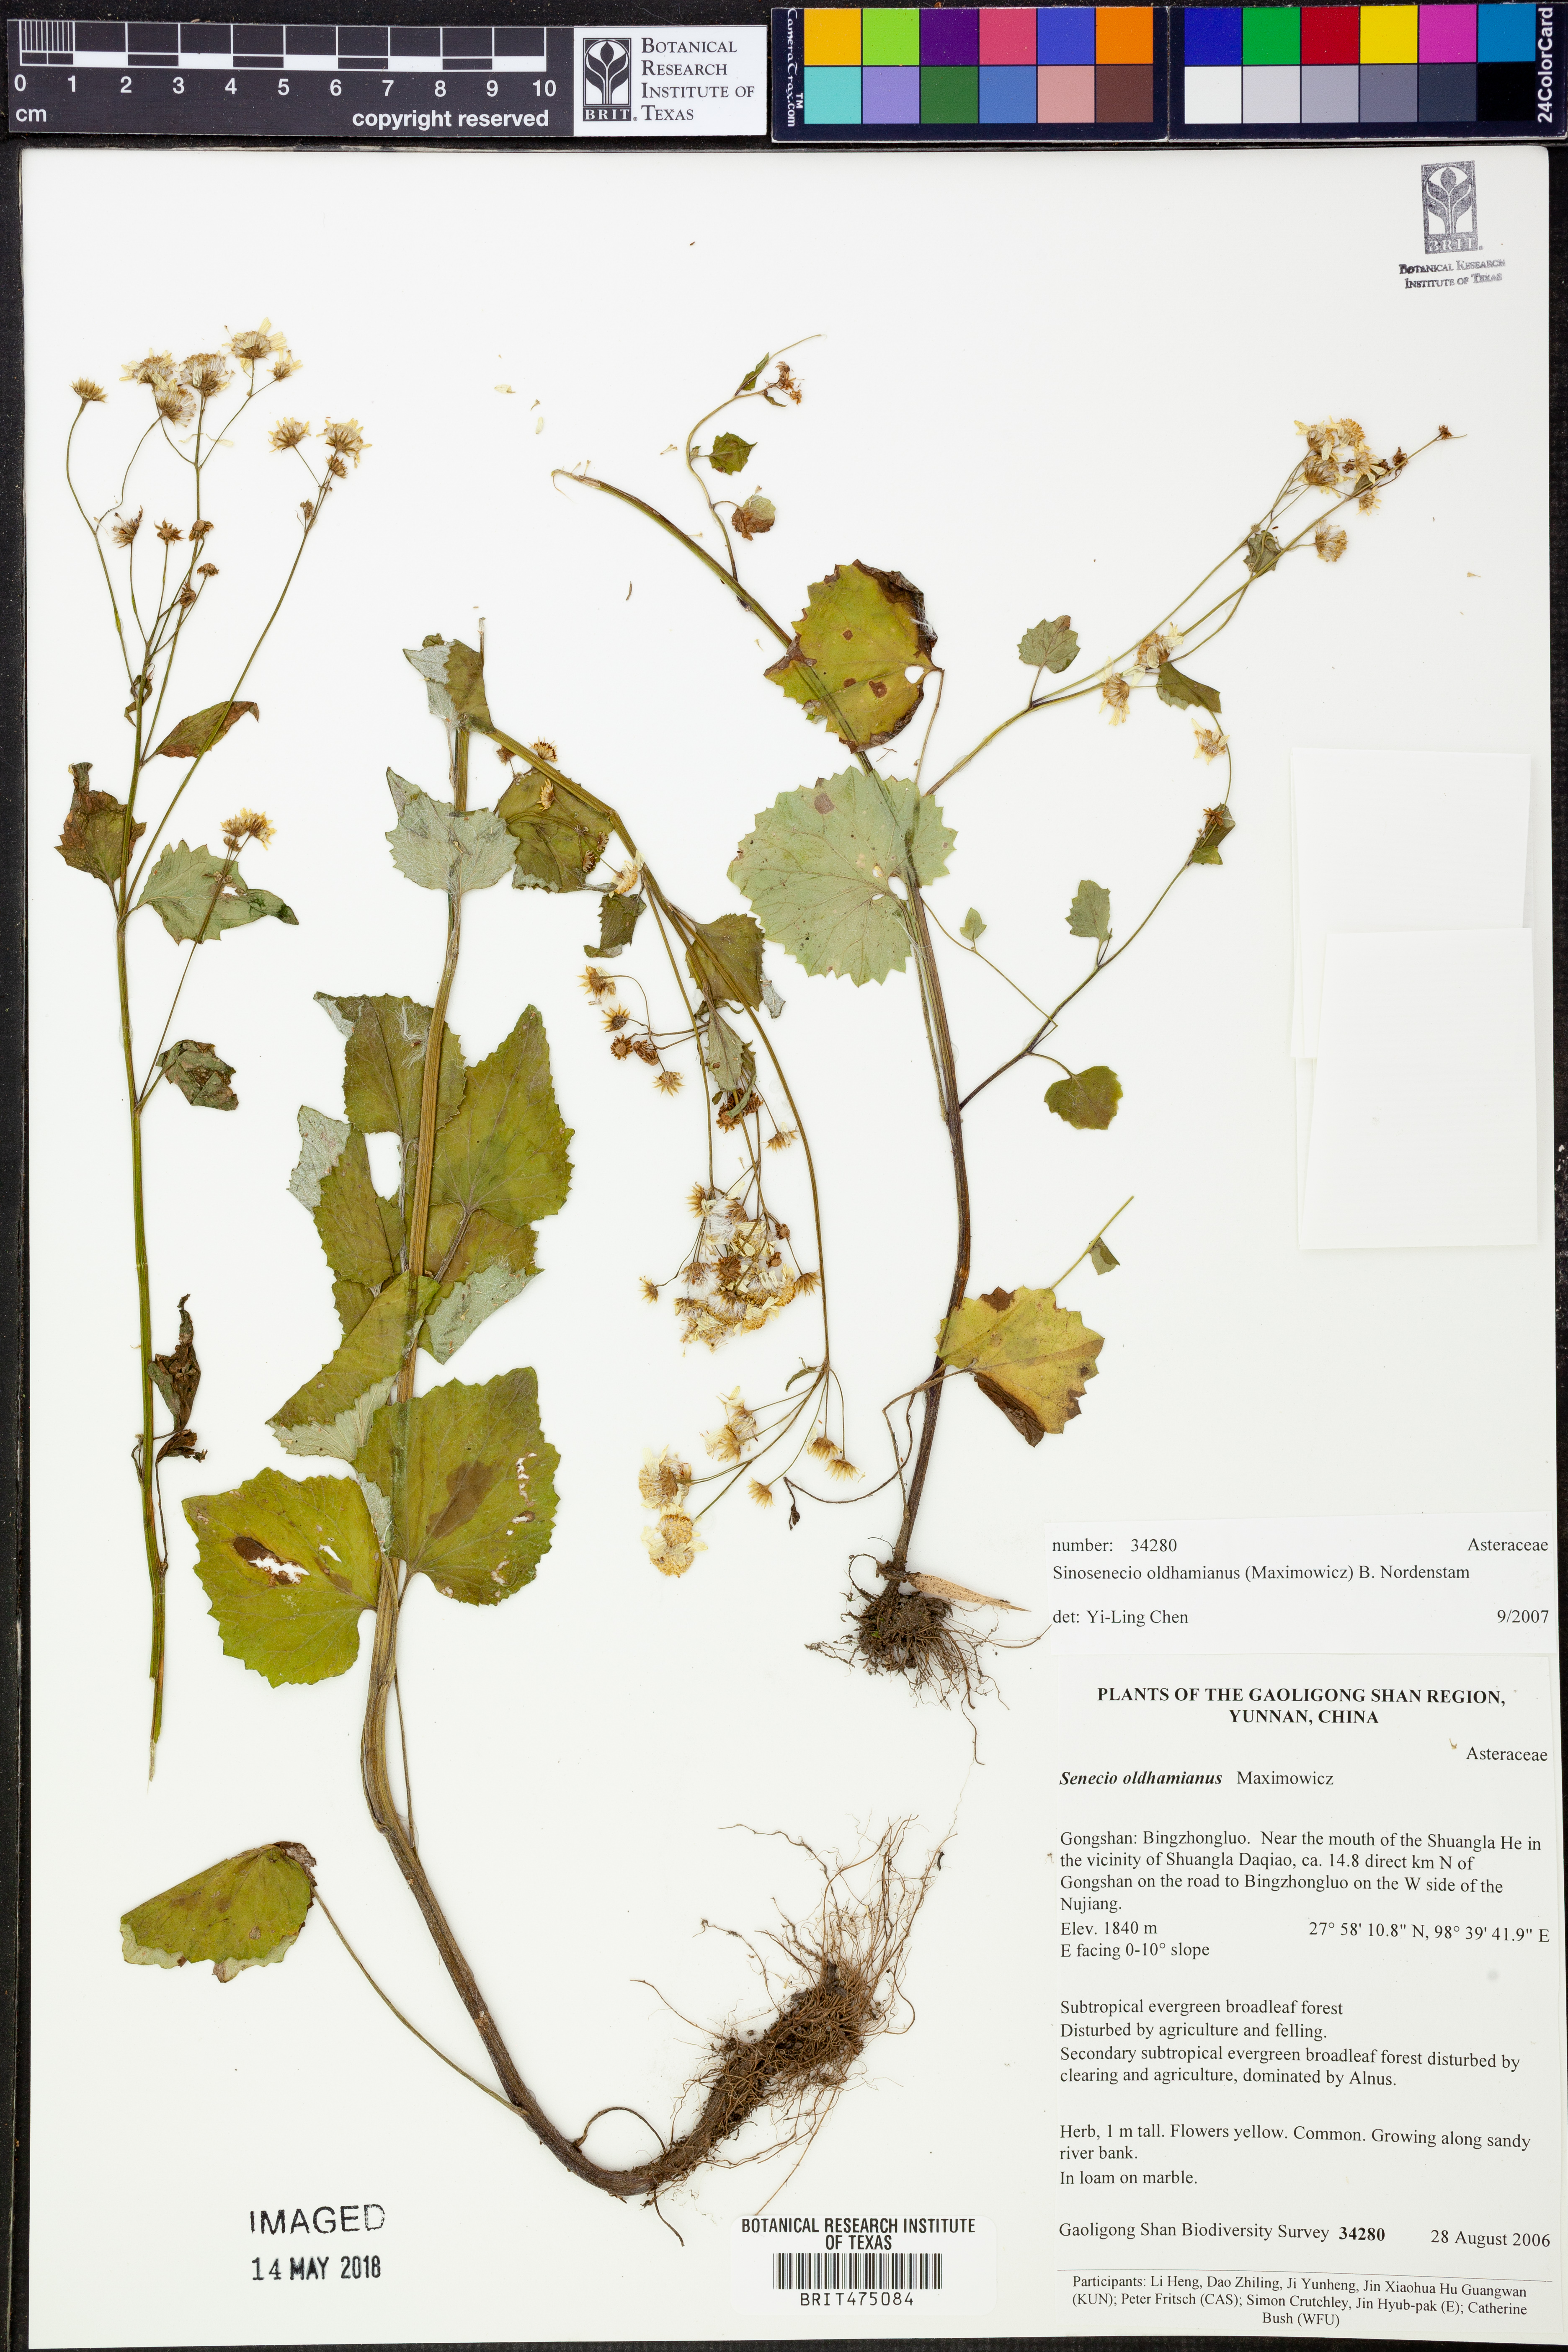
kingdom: Plantae
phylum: Tracheophyta
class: Magnoliopsida
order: Asterales
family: Asteraceae
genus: Sinosenecio
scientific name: Sinosenecio oldhamianus
